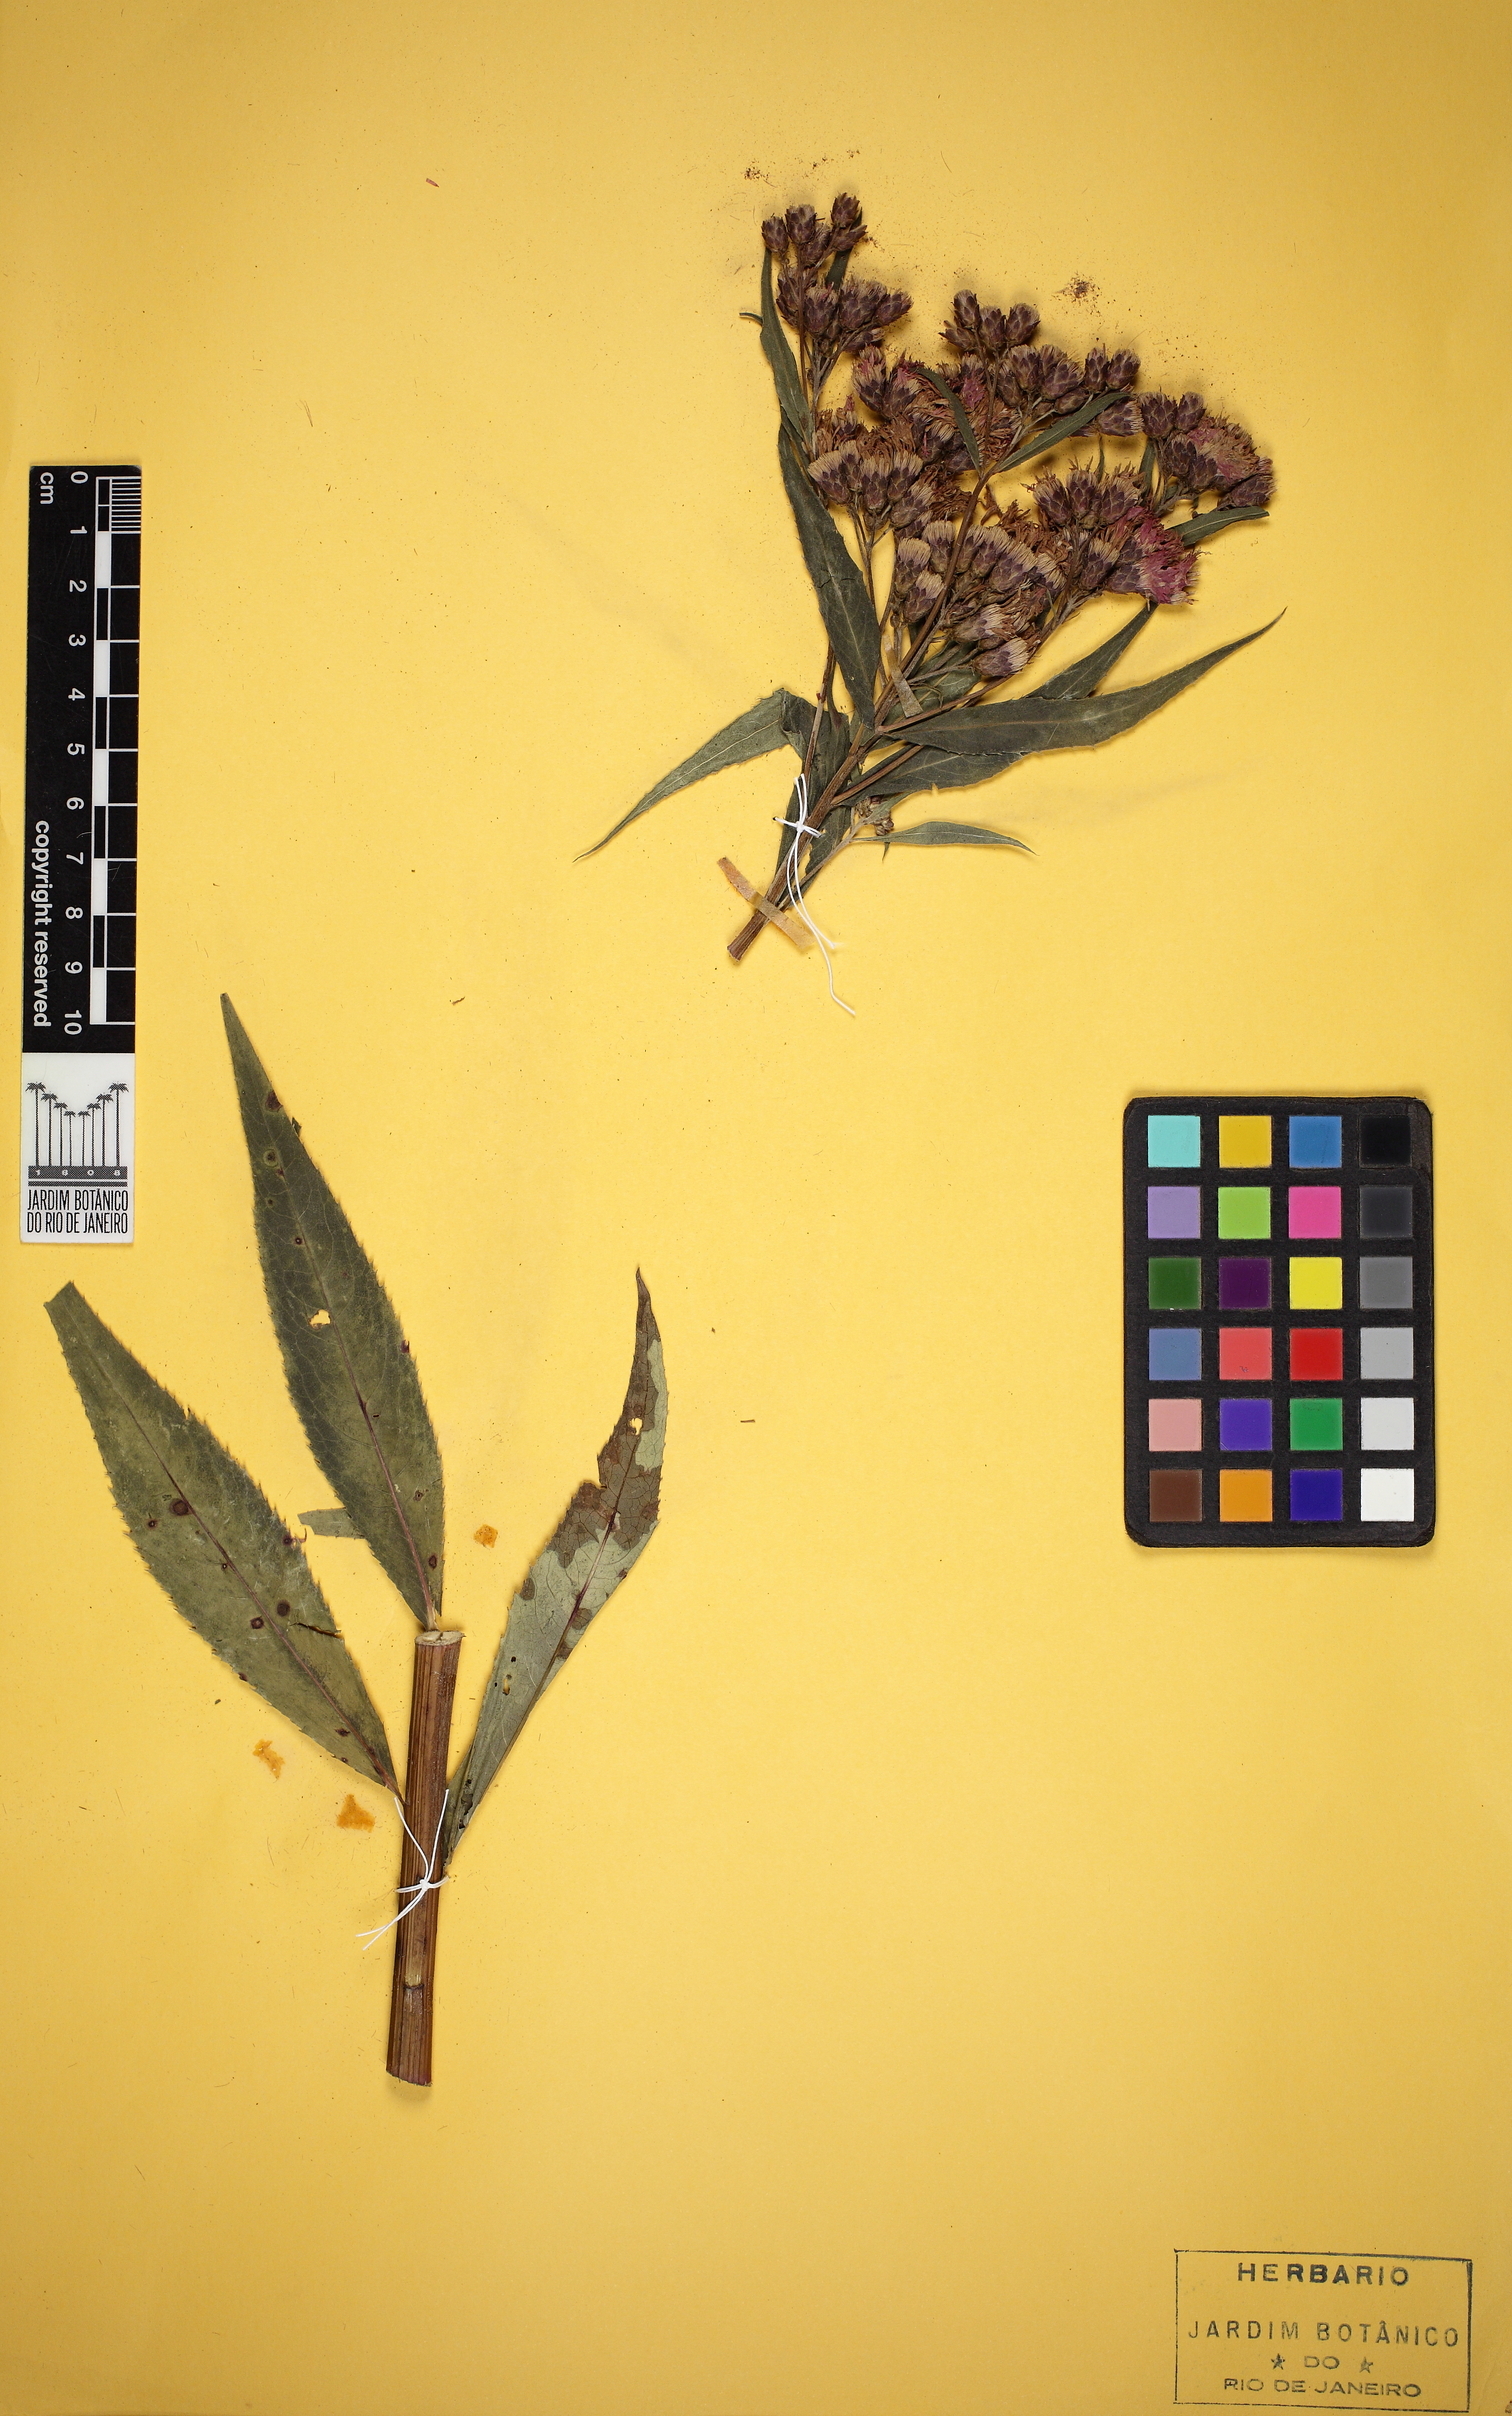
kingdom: Plantae
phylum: Tracheophyta
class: Magnoliopsida
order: Asterales
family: Asteraceae
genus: Vernonia
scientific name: Vernonia fasciculata
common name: Fascicled ironweed
